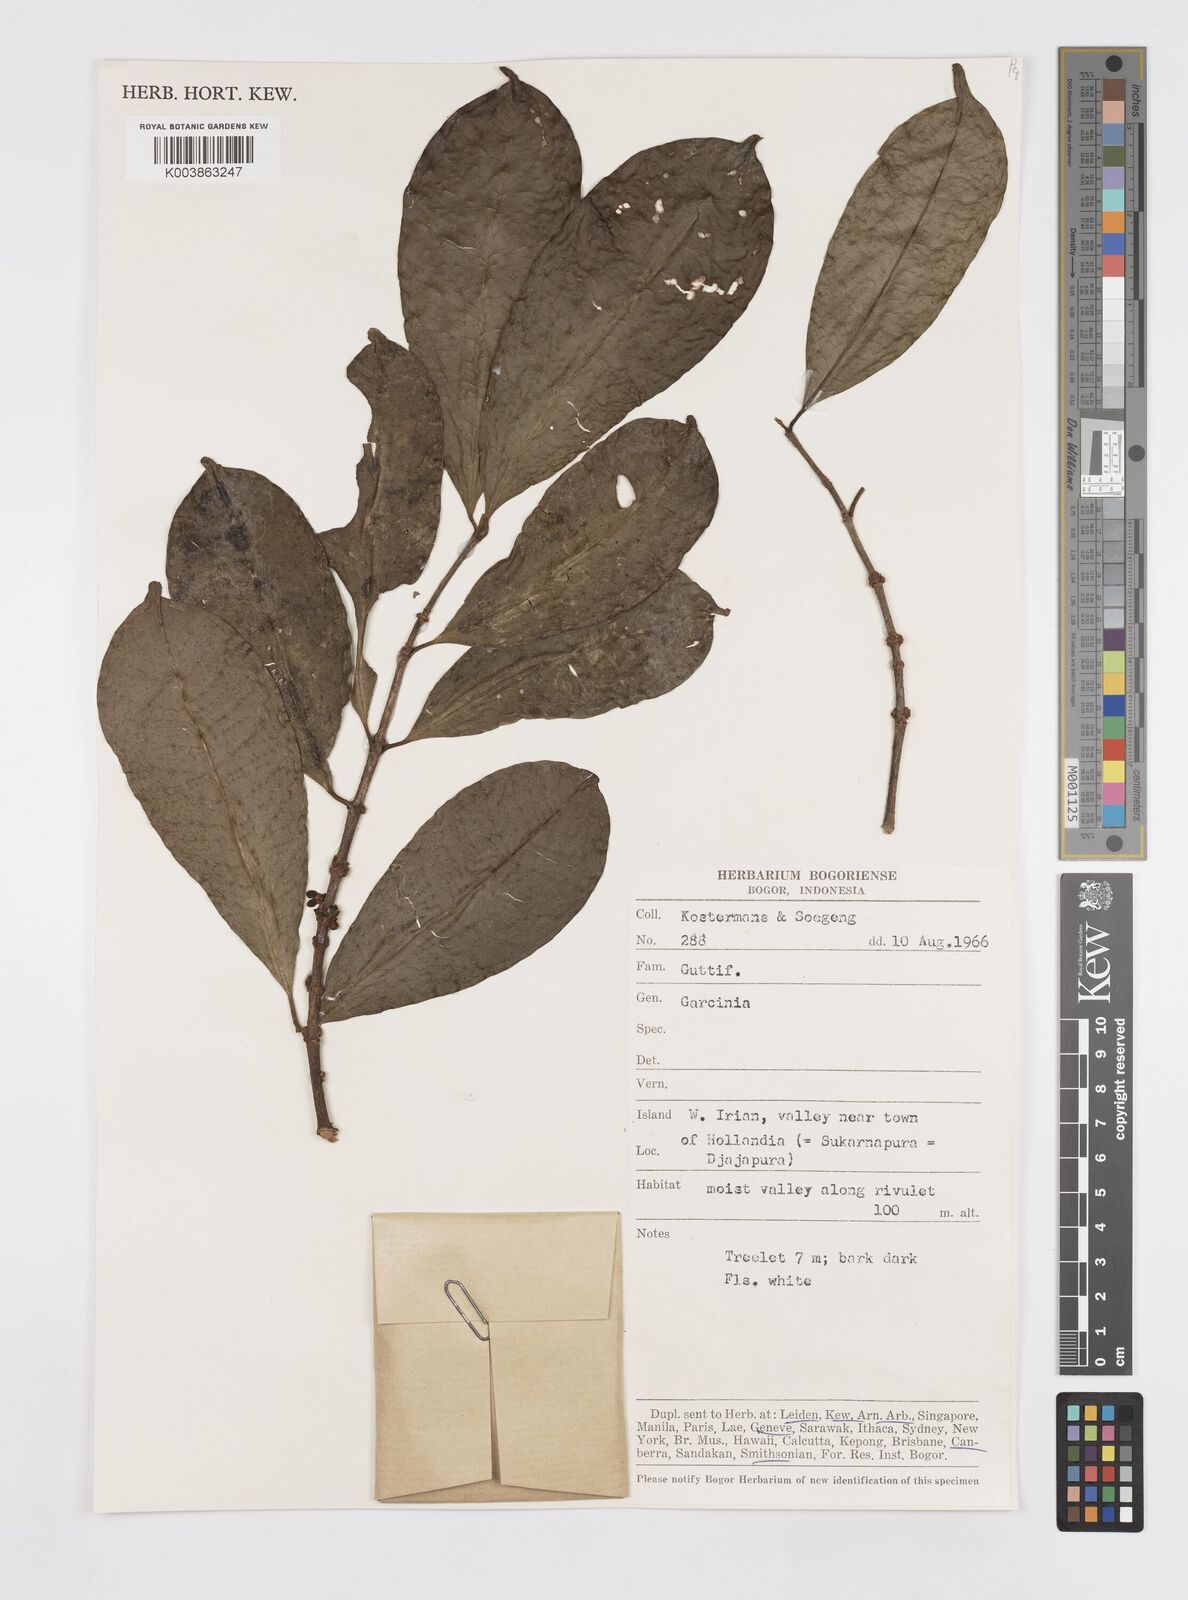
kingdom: Plantae
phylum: Tracheophyta
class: Magnoliopsida
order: Malpighiales
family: Clusiaceae
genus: Garcinia
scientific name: Garcinia
